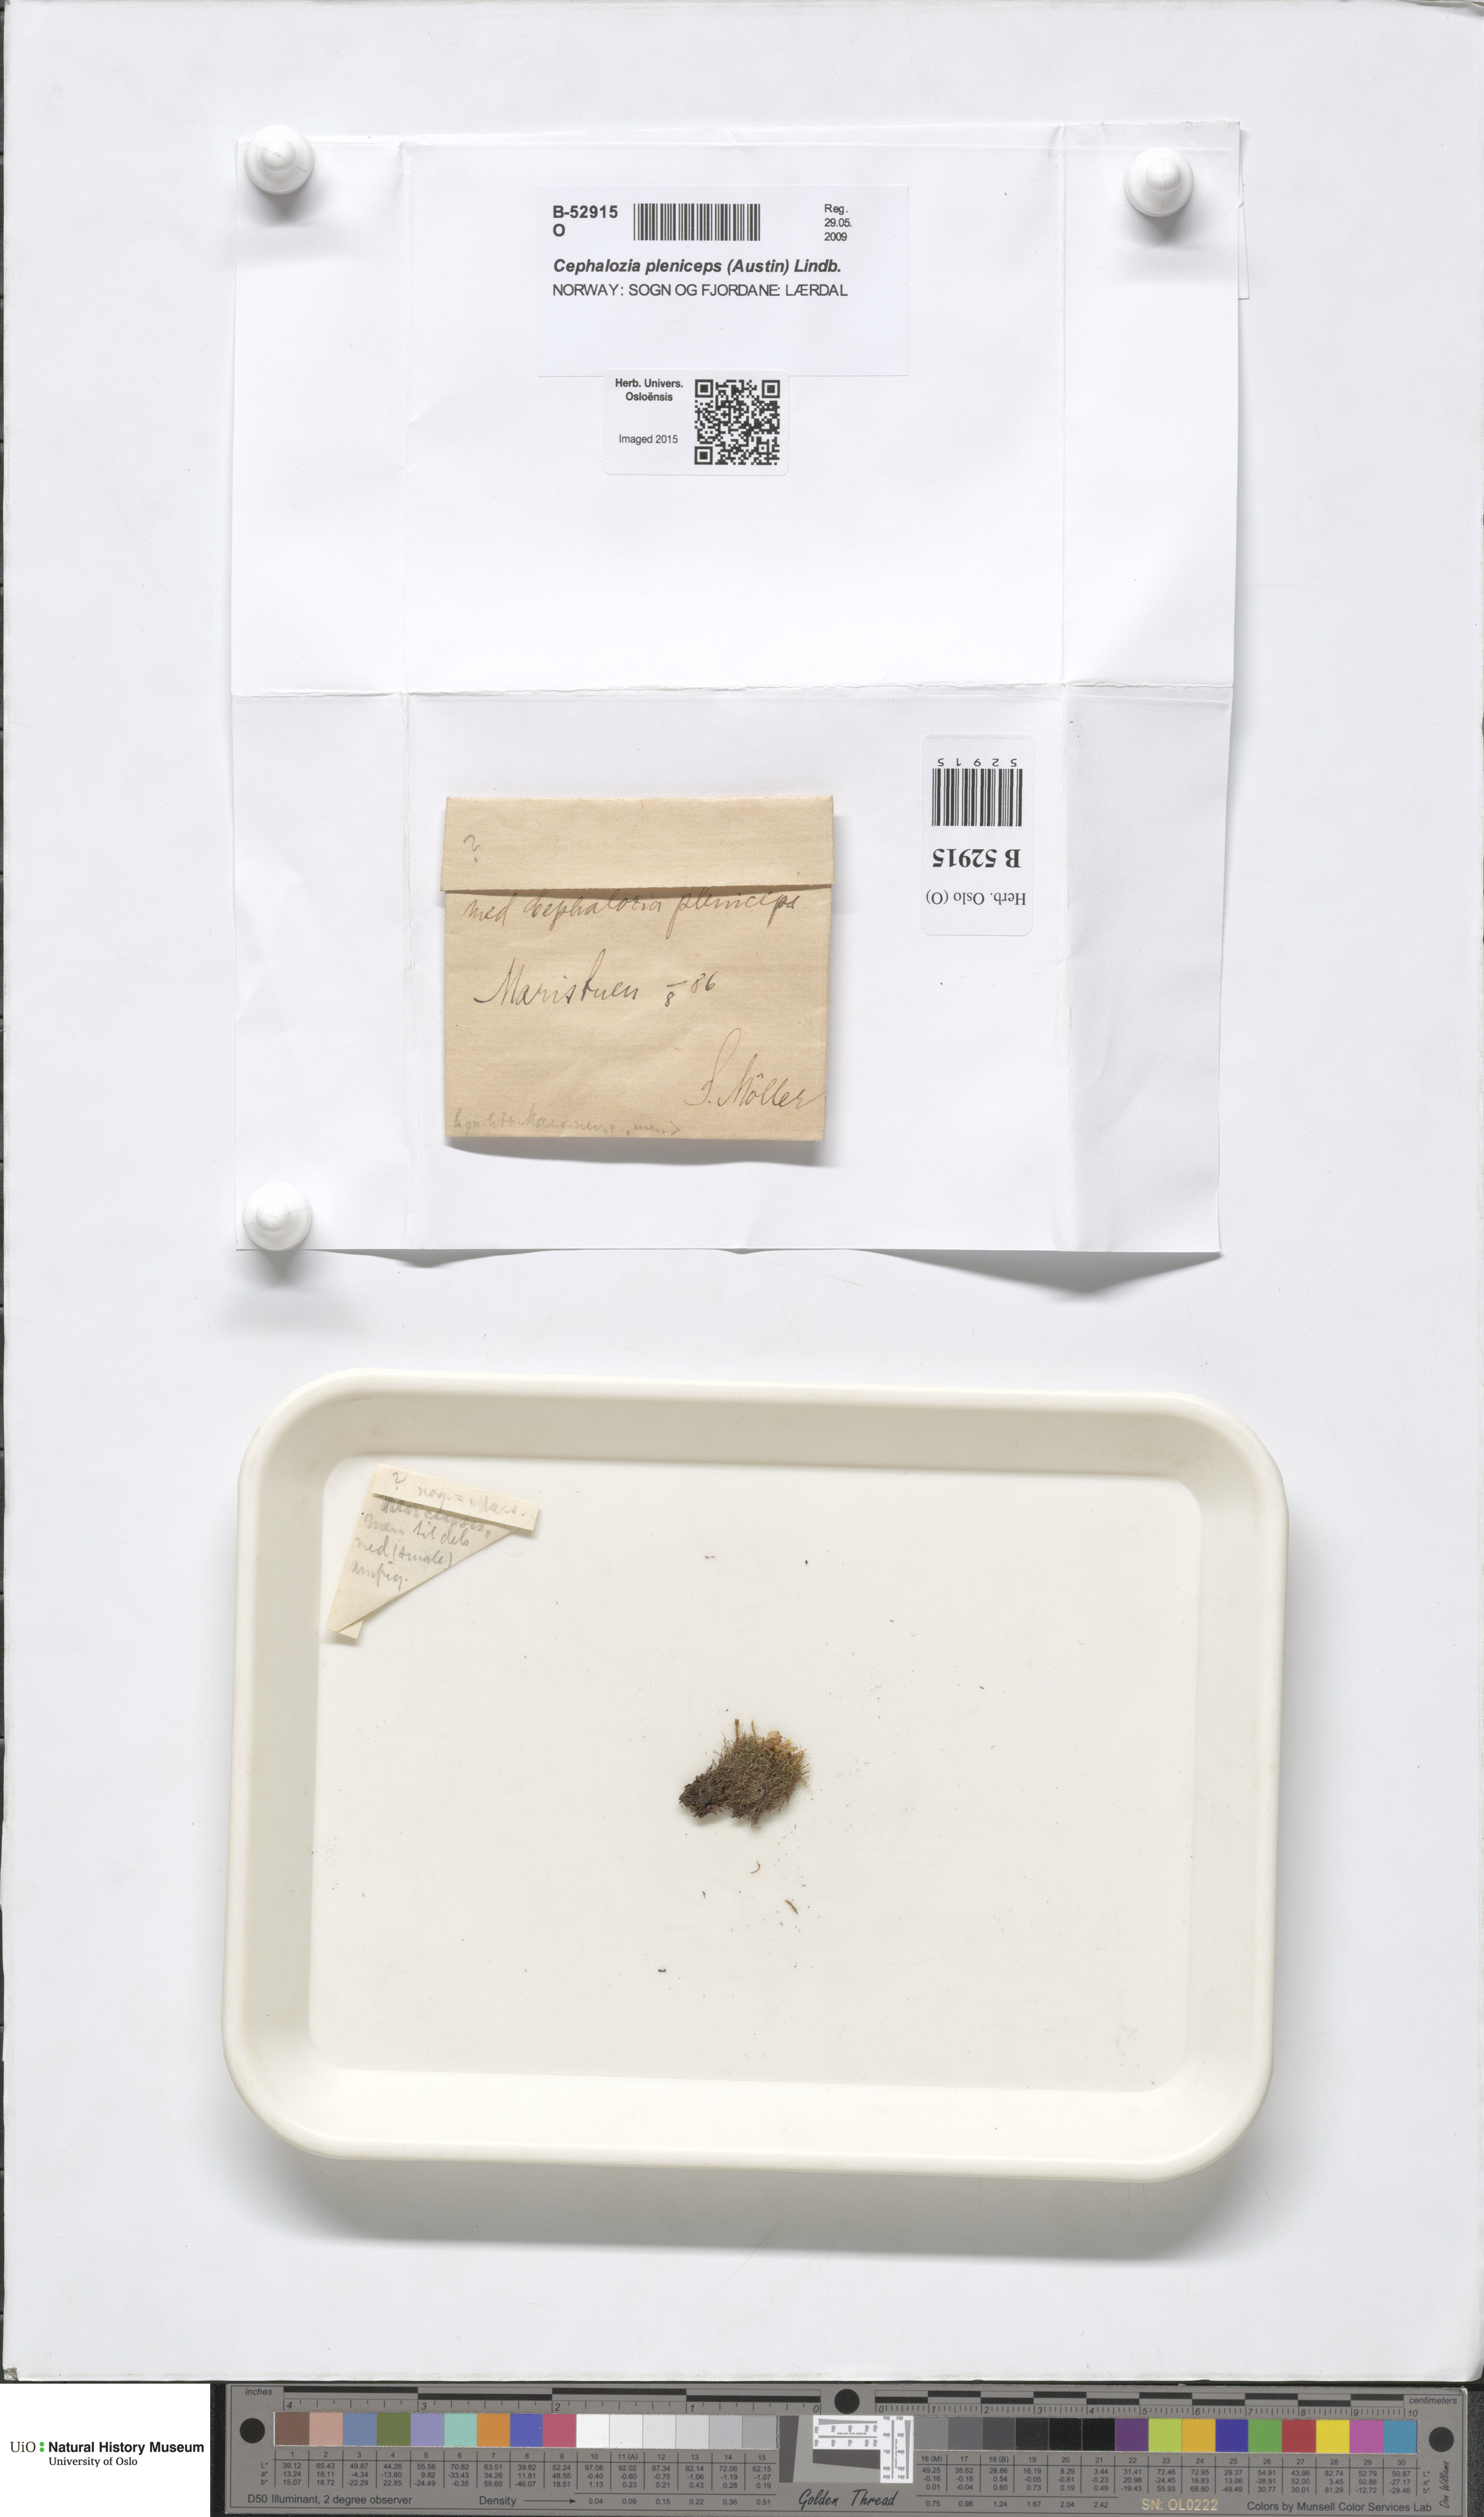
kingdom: Plantae
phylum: Marchantiophyta
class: Jungermanniopsida
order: Jungermanniales
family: Cephaloziaceae
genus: Fuscocephaloziopsis
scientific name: Fuscocephaloziopsis pleniceps
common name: Blunt pincerwort
